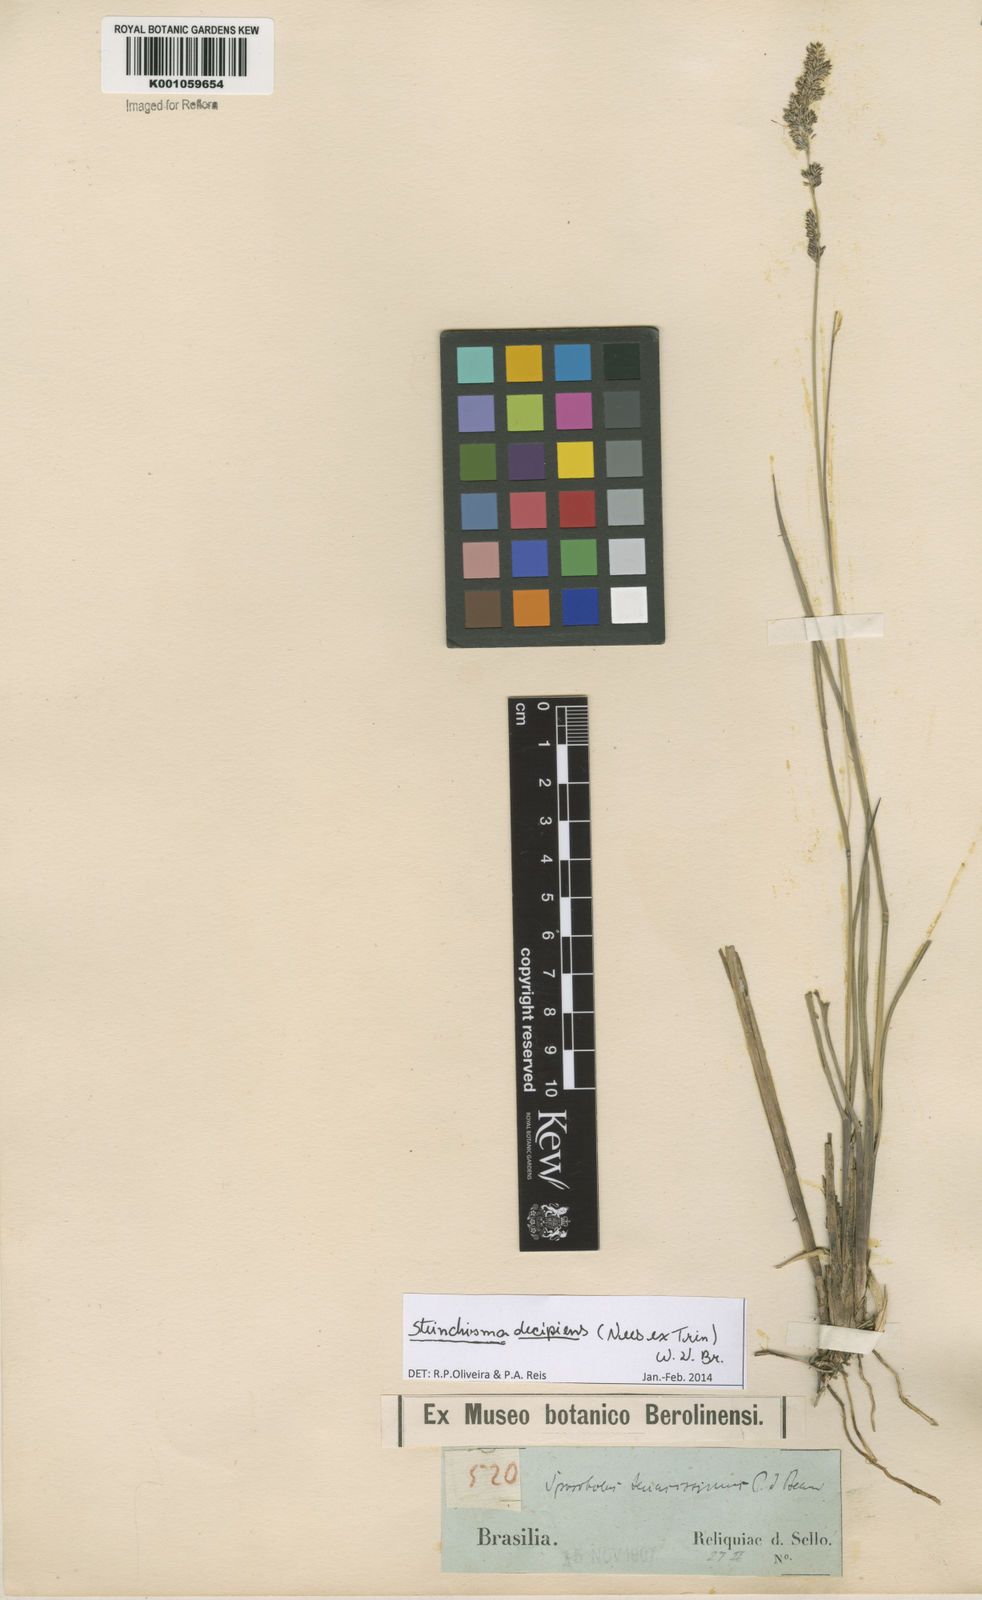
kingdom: Plantae
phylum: Tracheophyta
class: Liliopsida
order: Poales
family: Poaceae
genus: Steinchisma
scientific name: Steinchisma decipiens
